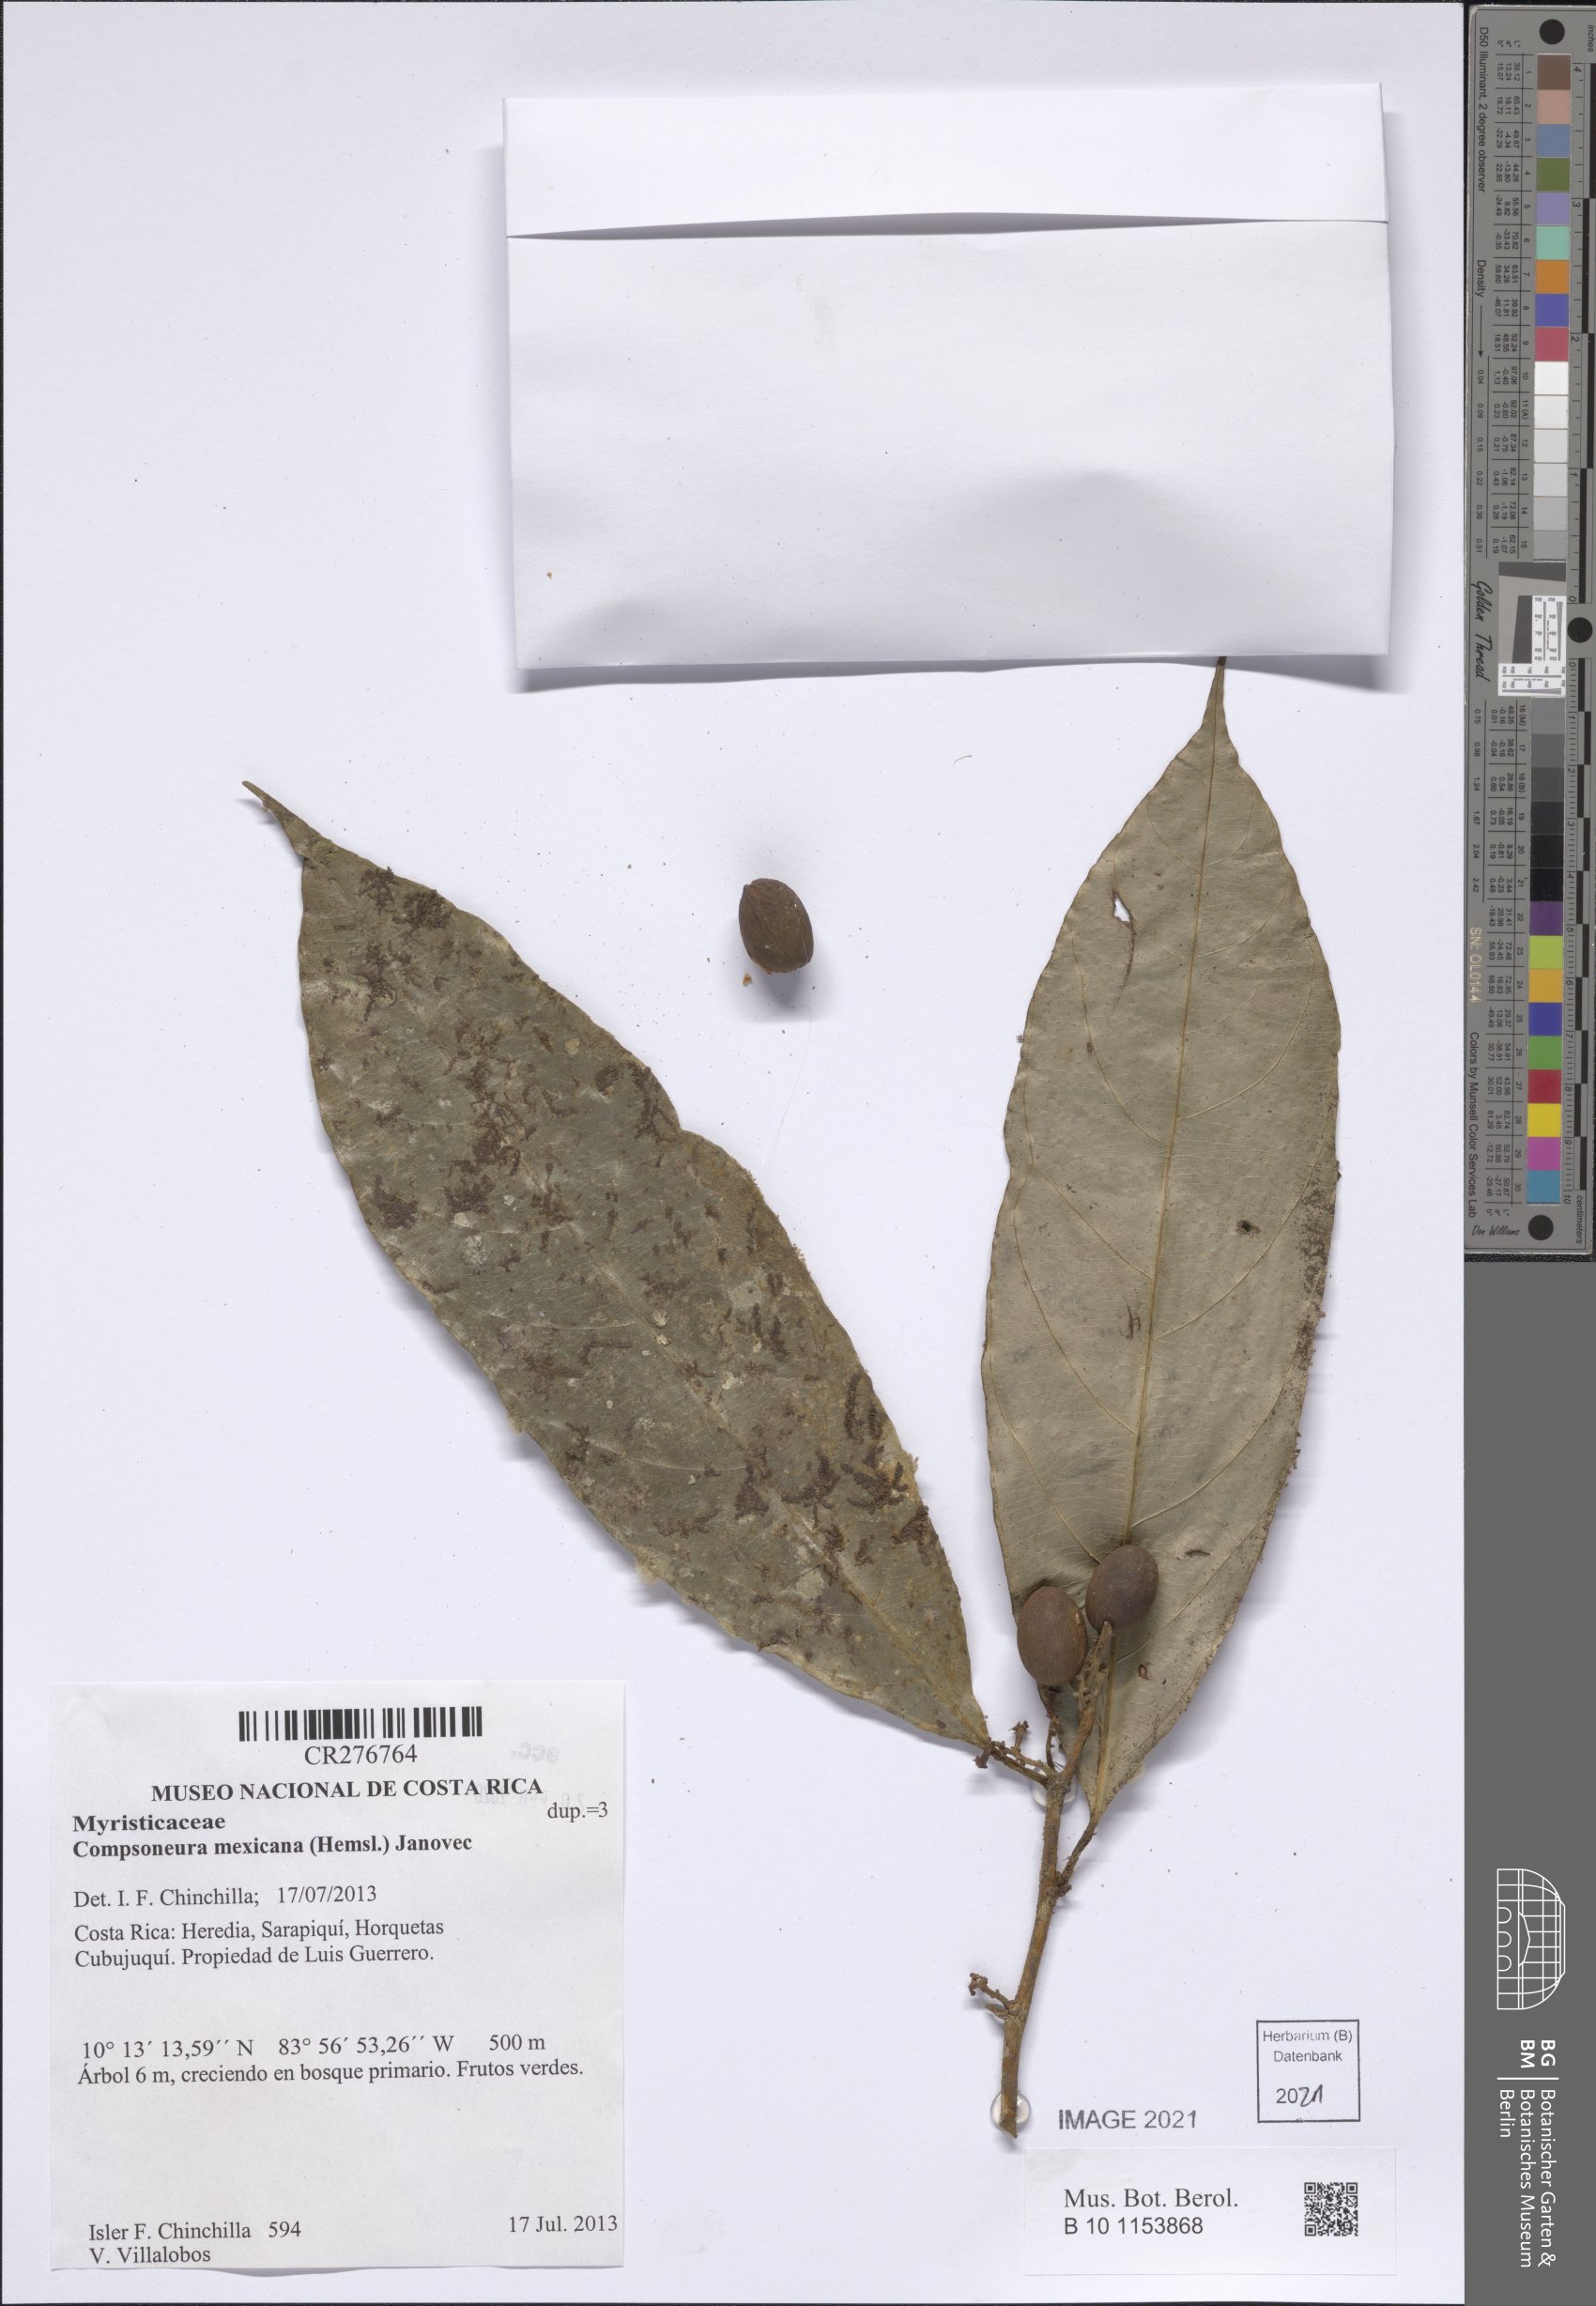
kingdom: Plantae
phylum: Tracheophyta
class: Magnoliopsida
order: Magnoliales
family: Myristicaceae
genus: Compsoneura
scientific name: Compsoneura mexicana
